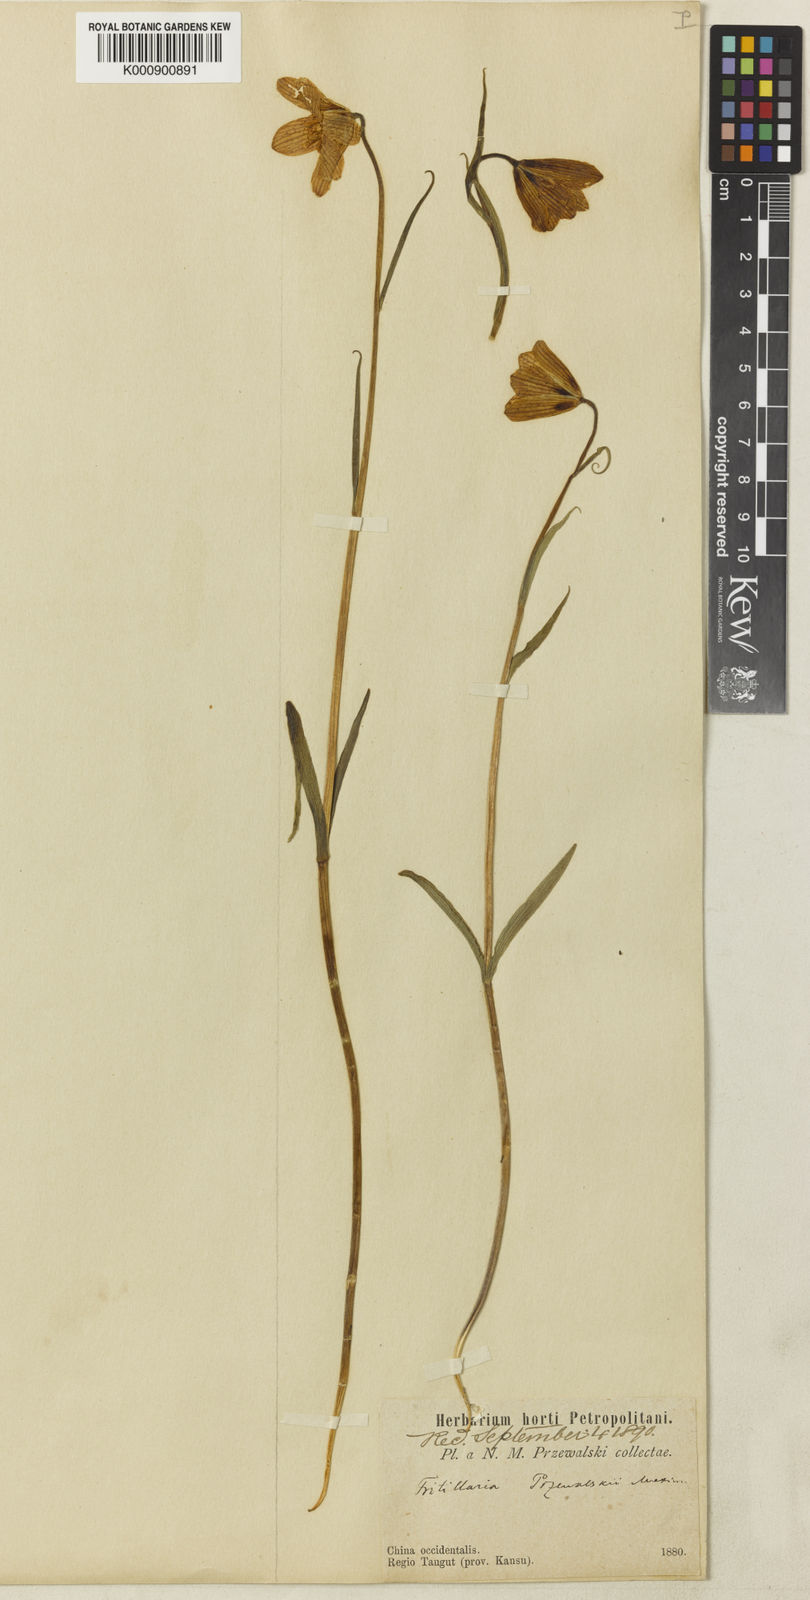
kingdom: Plantae
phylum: Tracheophyta
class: Liliopsida
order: Liliales
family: Liliaceae
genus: Fritillaria
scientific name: Fritillaria
